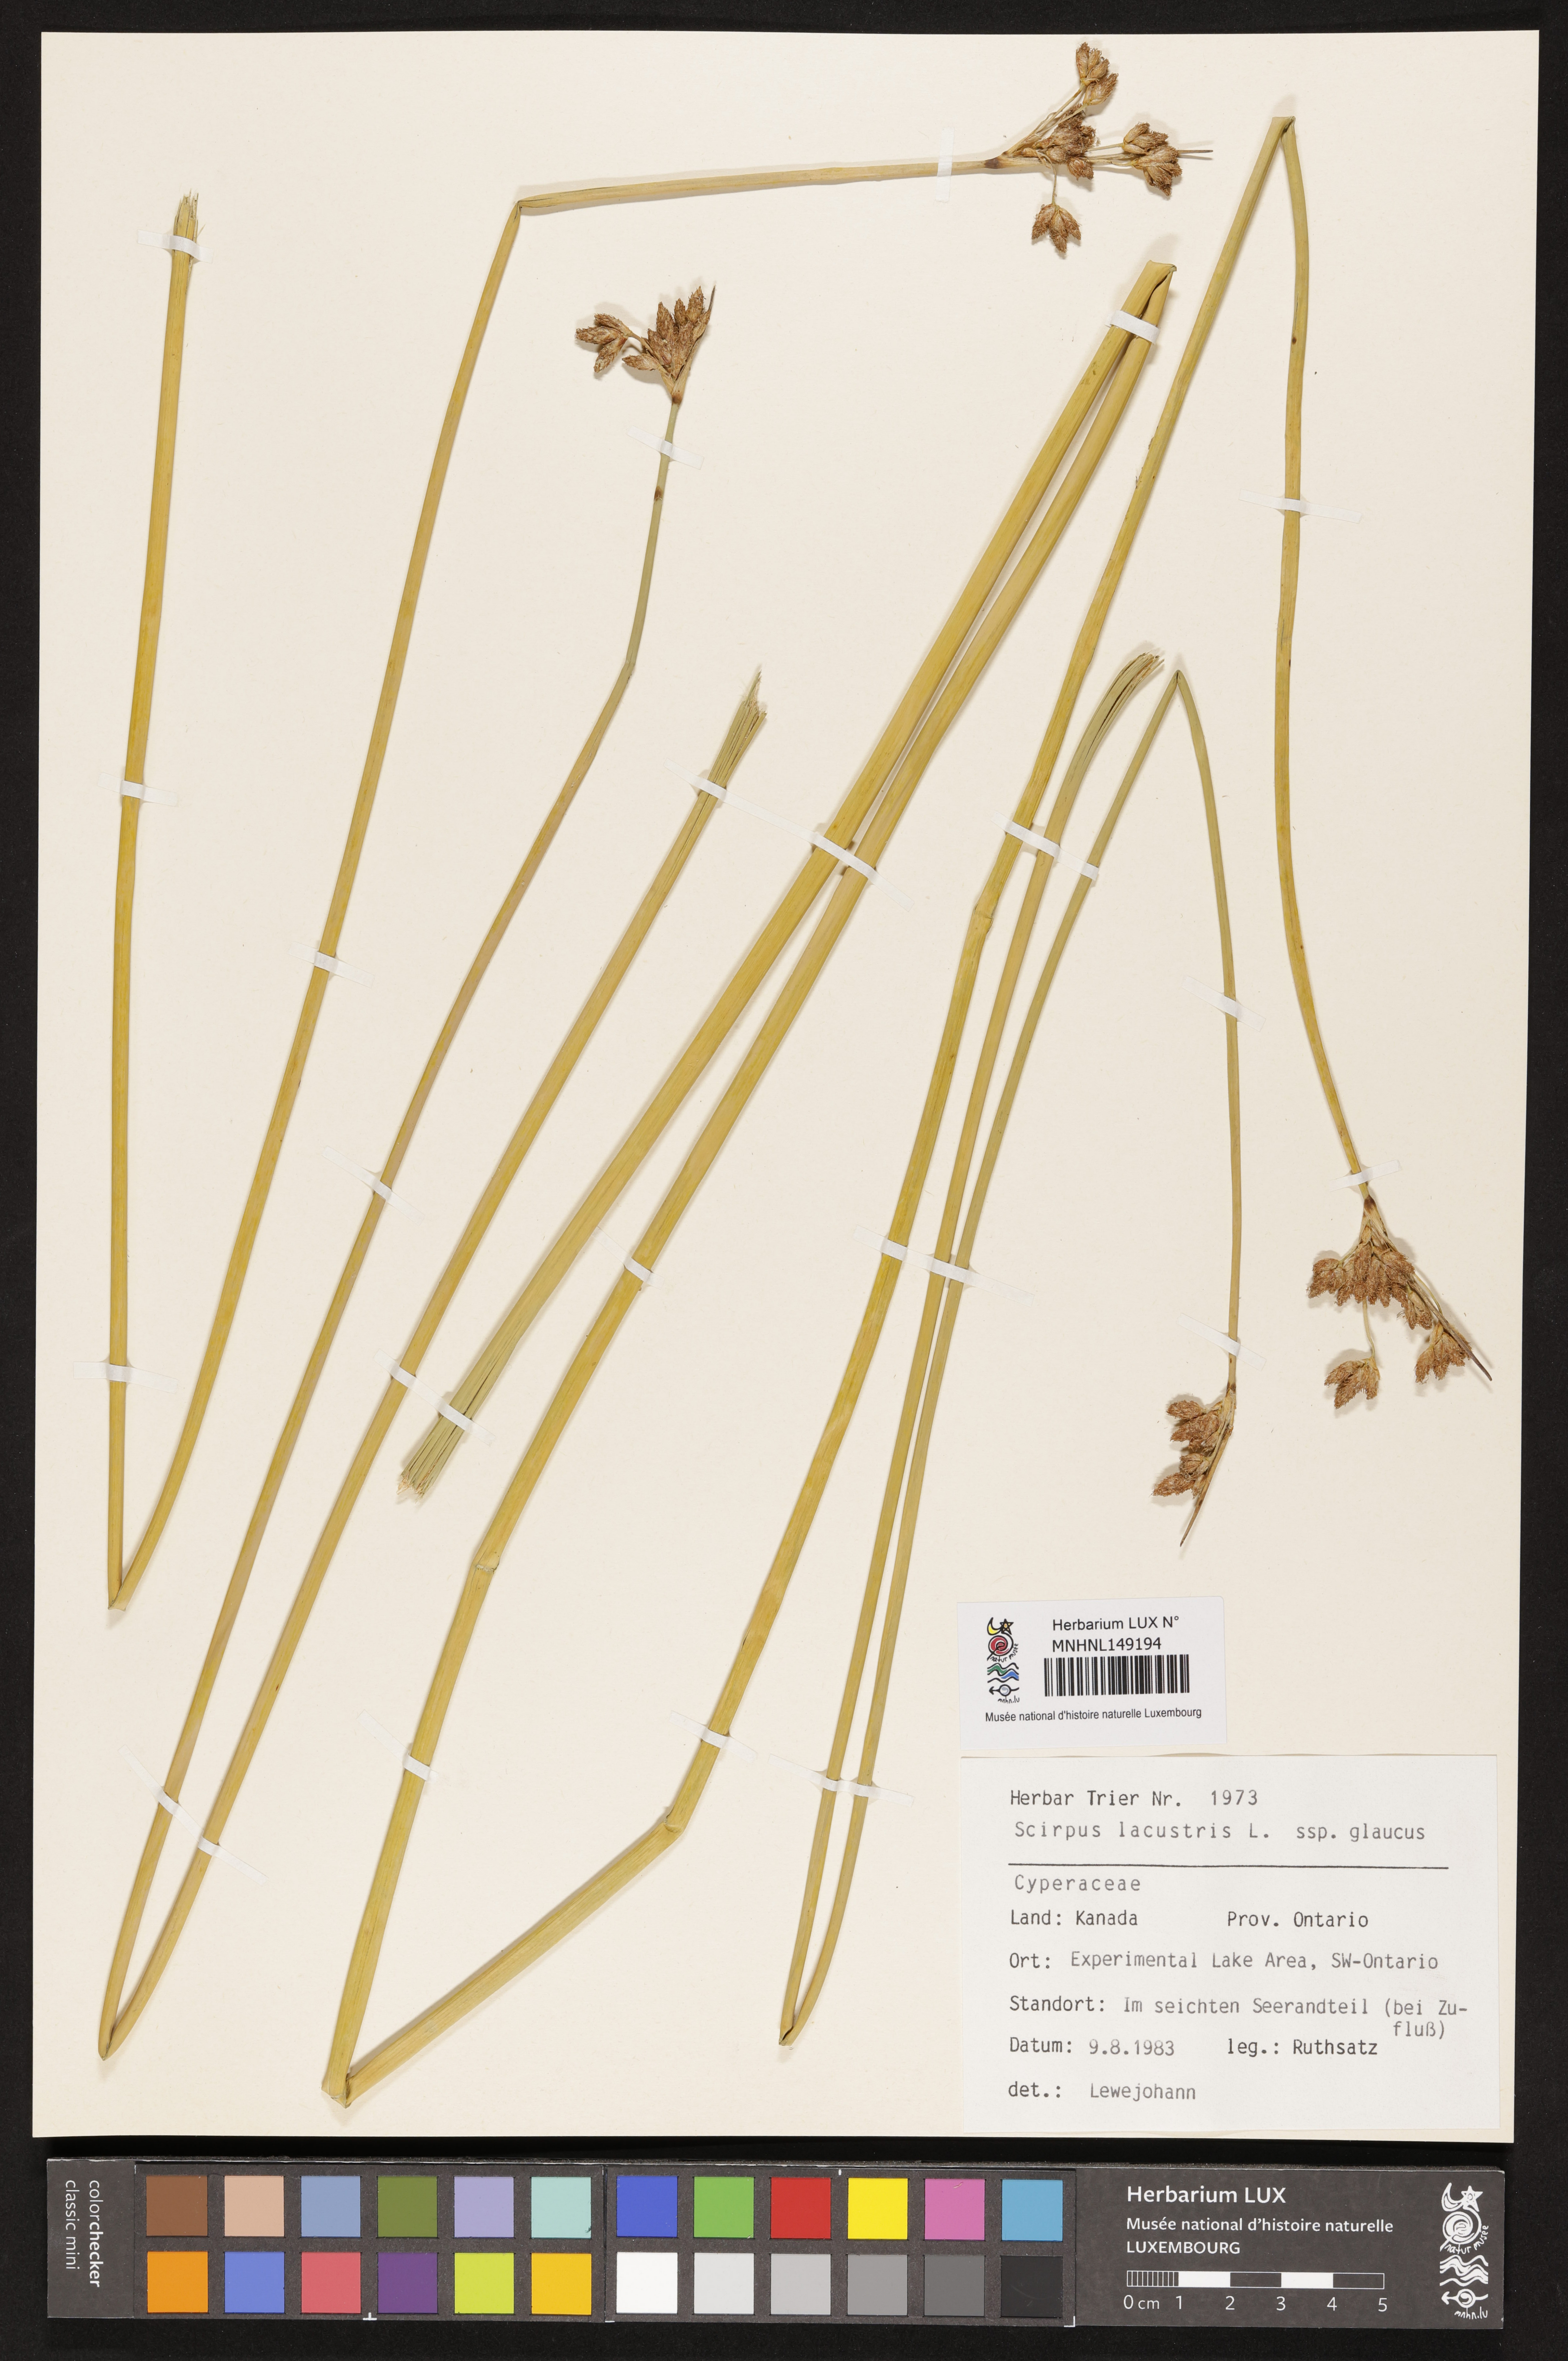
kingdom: Plantae
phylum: Tracheophyta
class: Liliopsida
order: Poales
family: Cyperaceae
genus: Schoenoplectus
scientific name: Schoenoplectus tabernaemontani
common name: Grey club-rush
